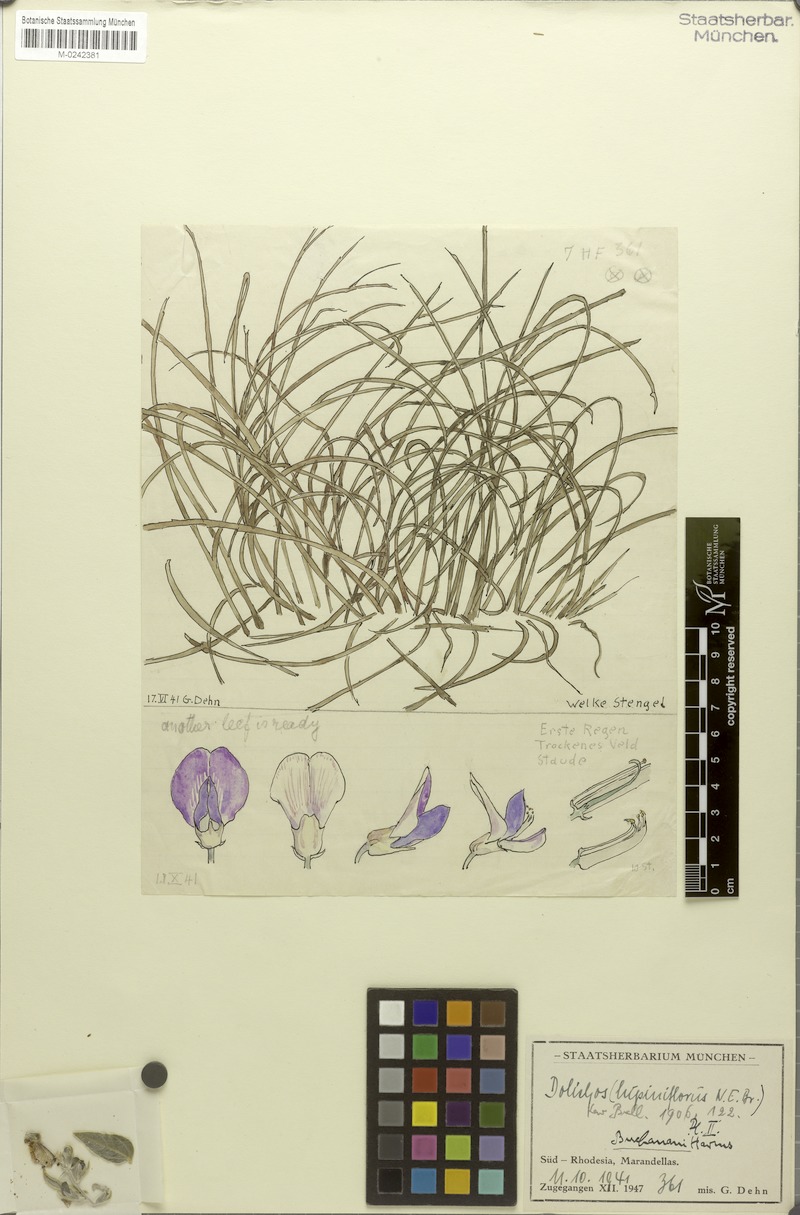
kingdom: Plantae
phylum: Tracheophyta
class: Magnoliopsida
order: Fabales
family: Fabaceae
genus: Dolichos
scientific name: Dolichos kilimandscharicus
